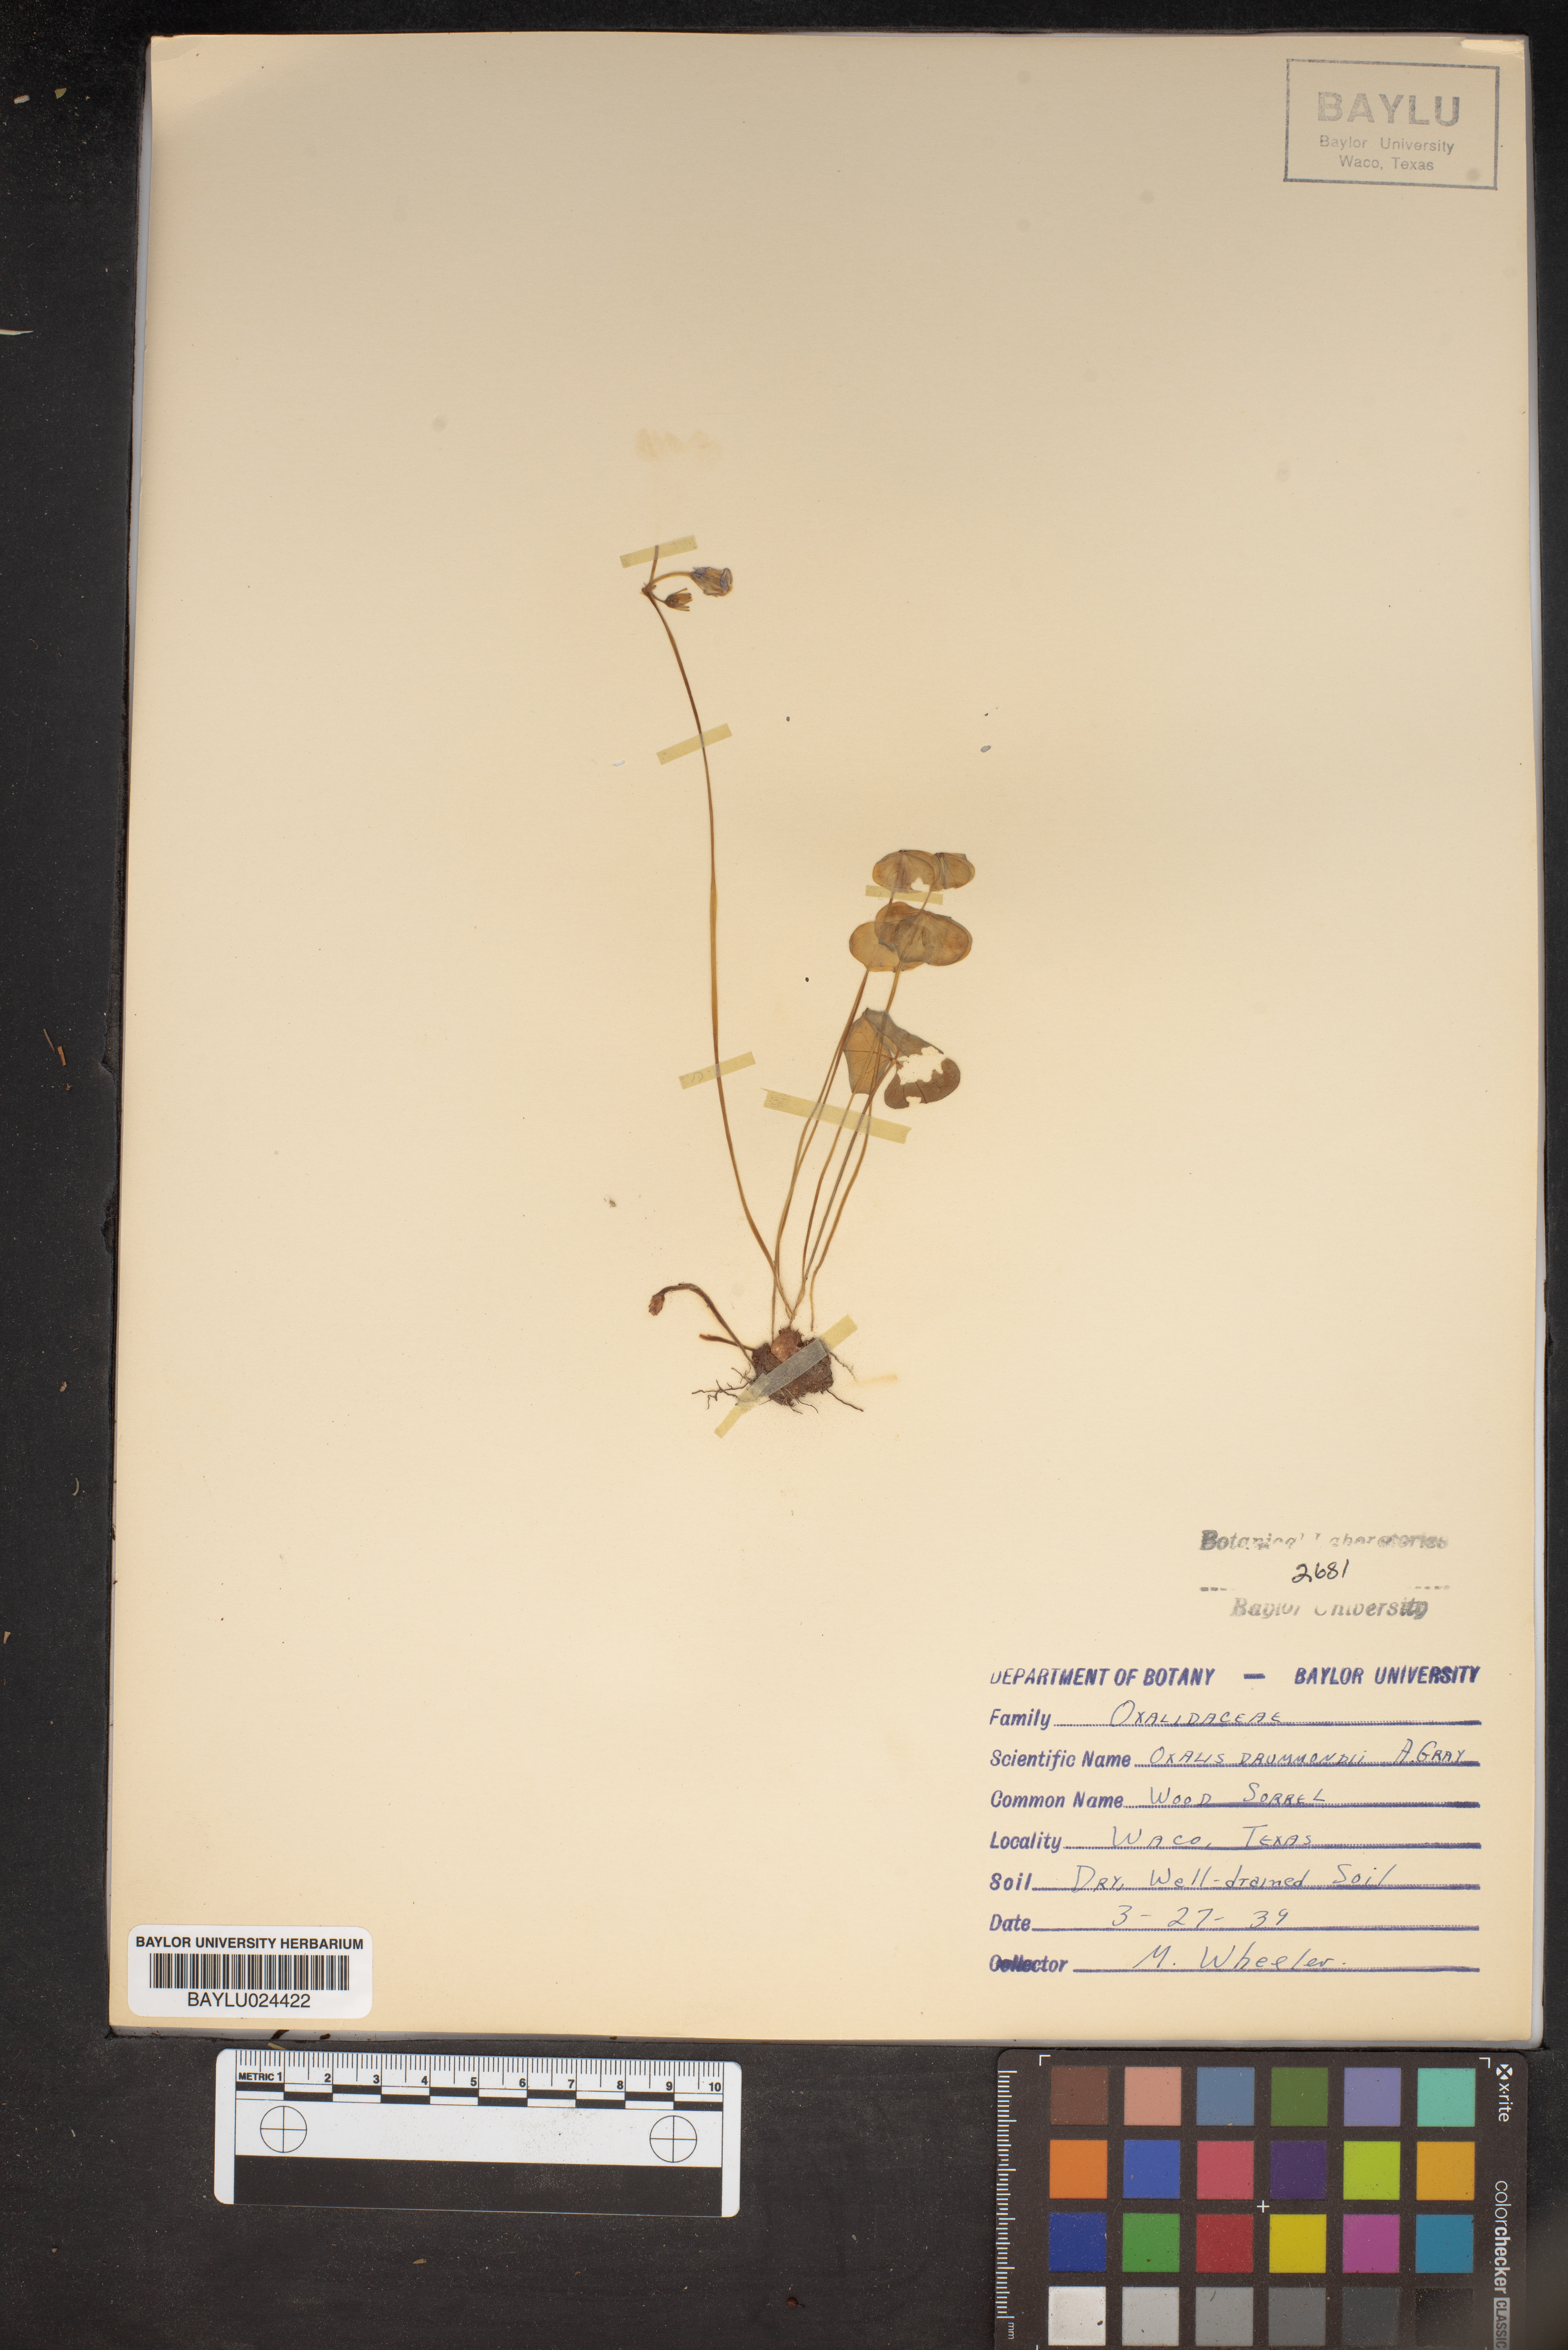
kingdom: Plantae
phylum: Tracheophyta
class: Magnoliopsida
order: Oxalidales
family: Oxalidaceae
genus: Oxalis
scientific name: Oxalis drummondii
